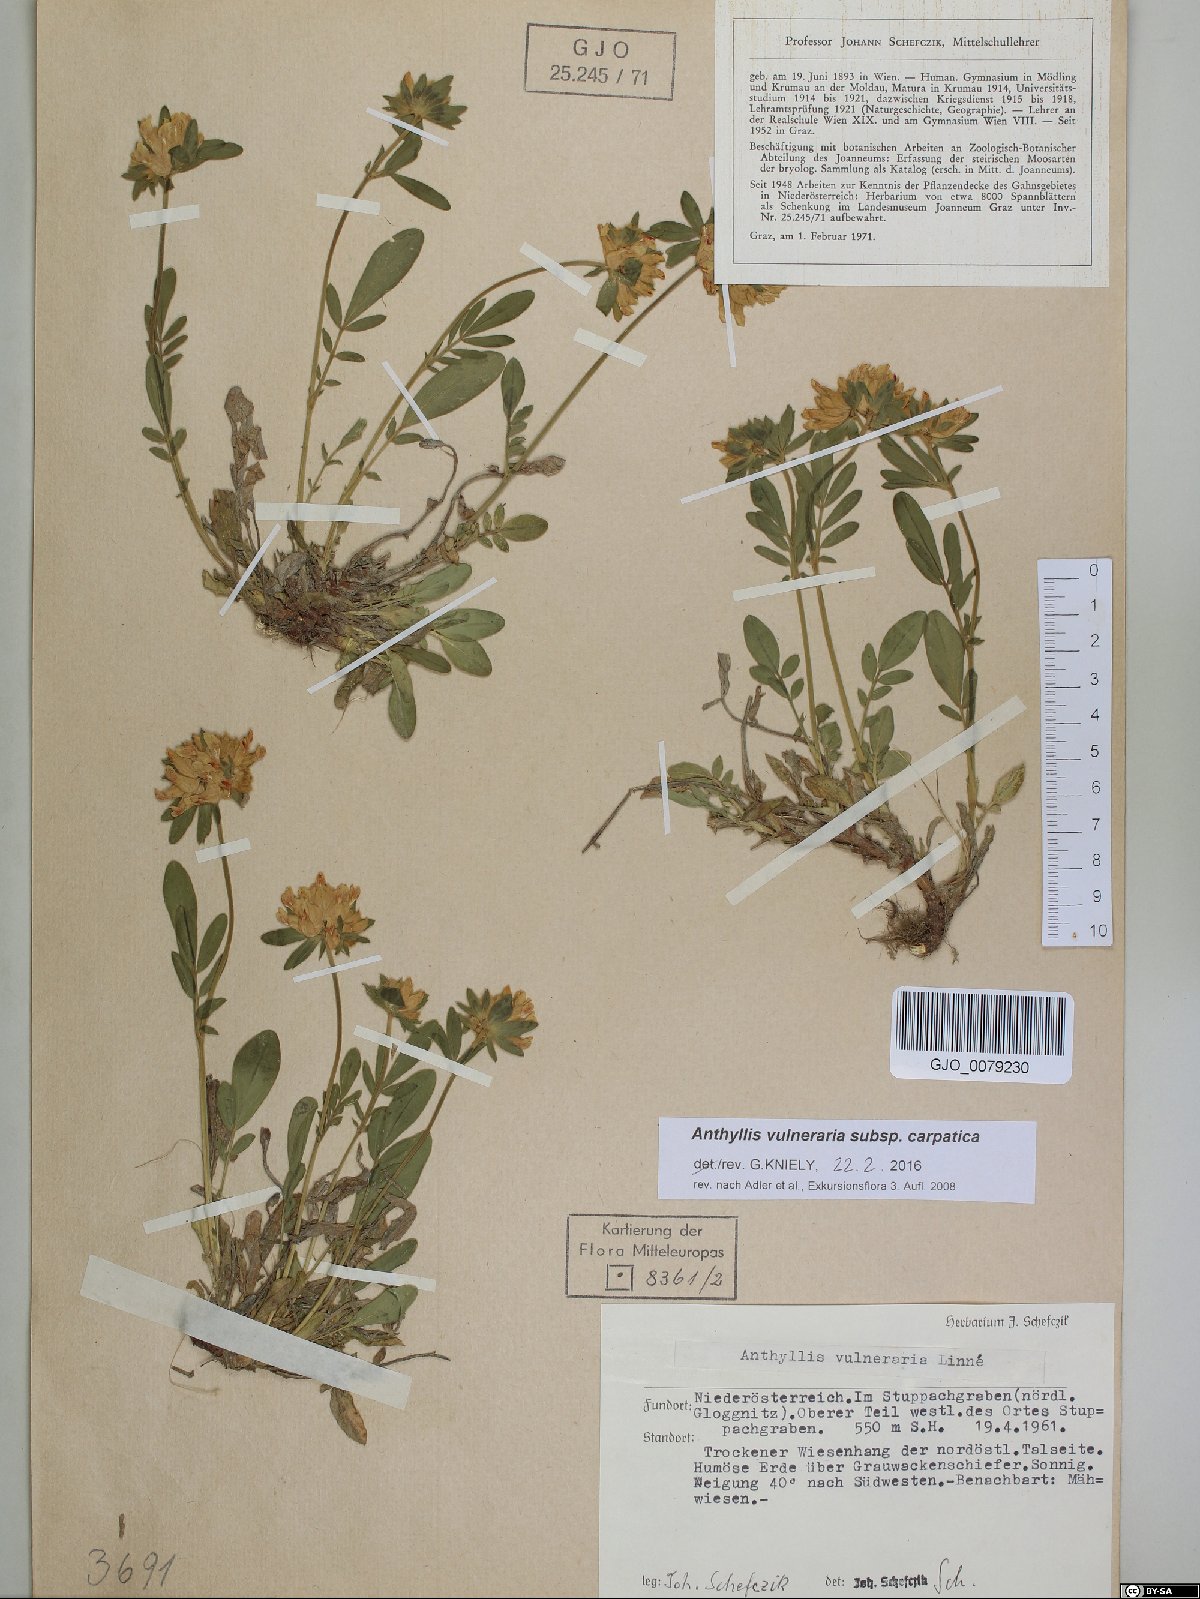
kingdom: Plantae
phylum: Tracheophyta
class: Magnoliopsida
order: Fabales
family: Fabaceae
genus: Anthyllis
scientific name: Anthyllis vulneraria
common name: Kidney vetch
